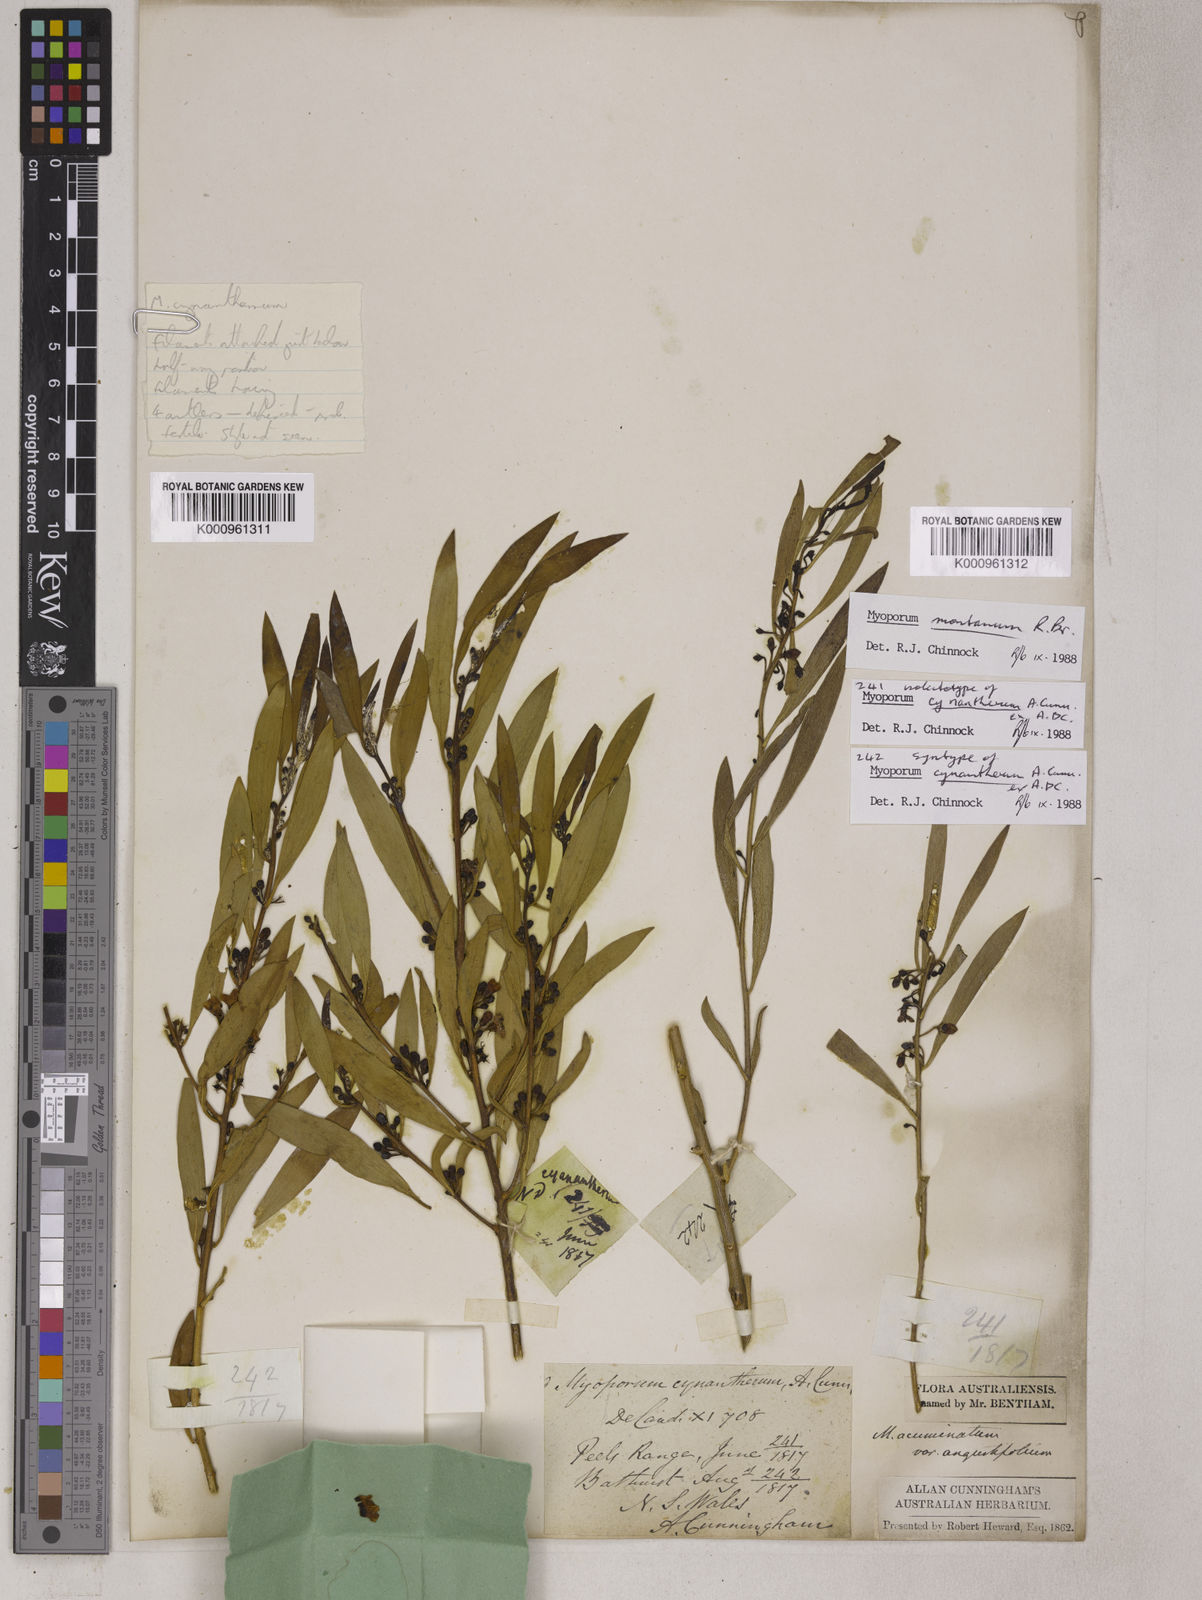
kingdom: Plantae
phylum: Tracheophyta
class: Magnoliopsida
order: Lamiales
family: Scrophulariaceae
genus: Myoporum
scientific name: Myoporum montanum
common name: Waterbush
